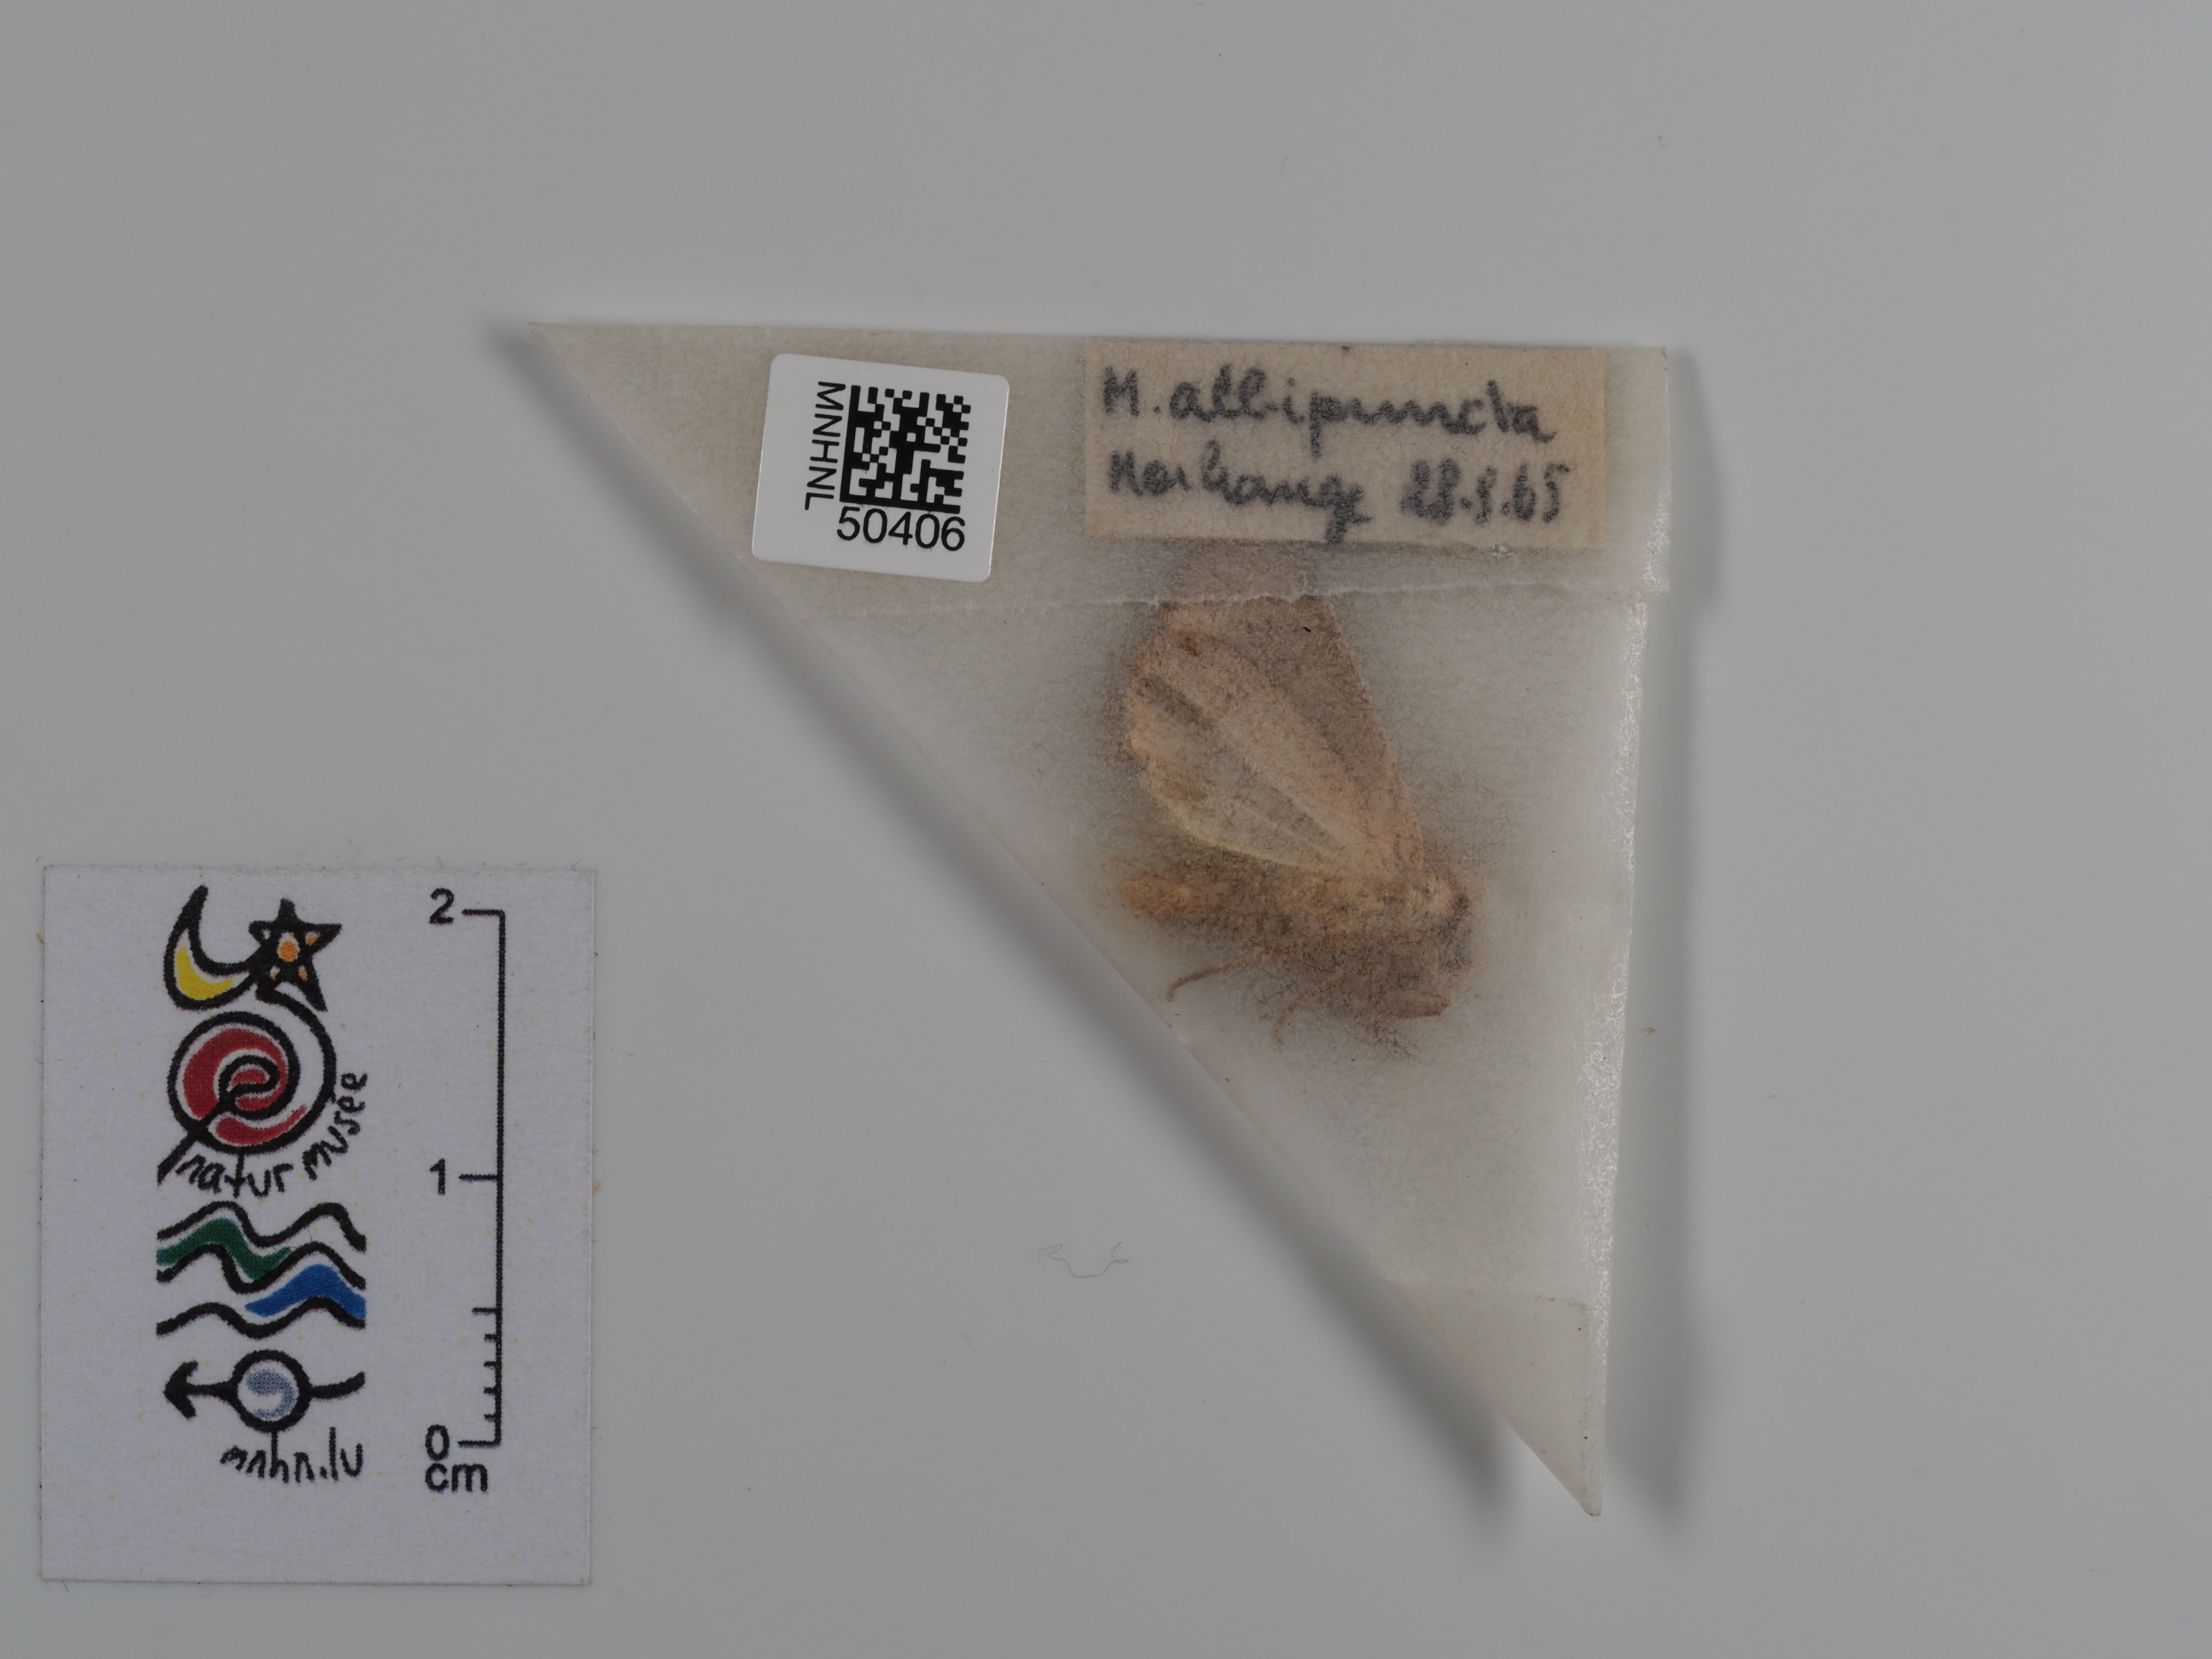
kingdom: Animalia
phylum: Arthropoda
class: Insecta
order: Lepidoptera
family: Noctuidae
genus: Mythimna
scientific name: Mythimna albipuncta
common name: White-point
